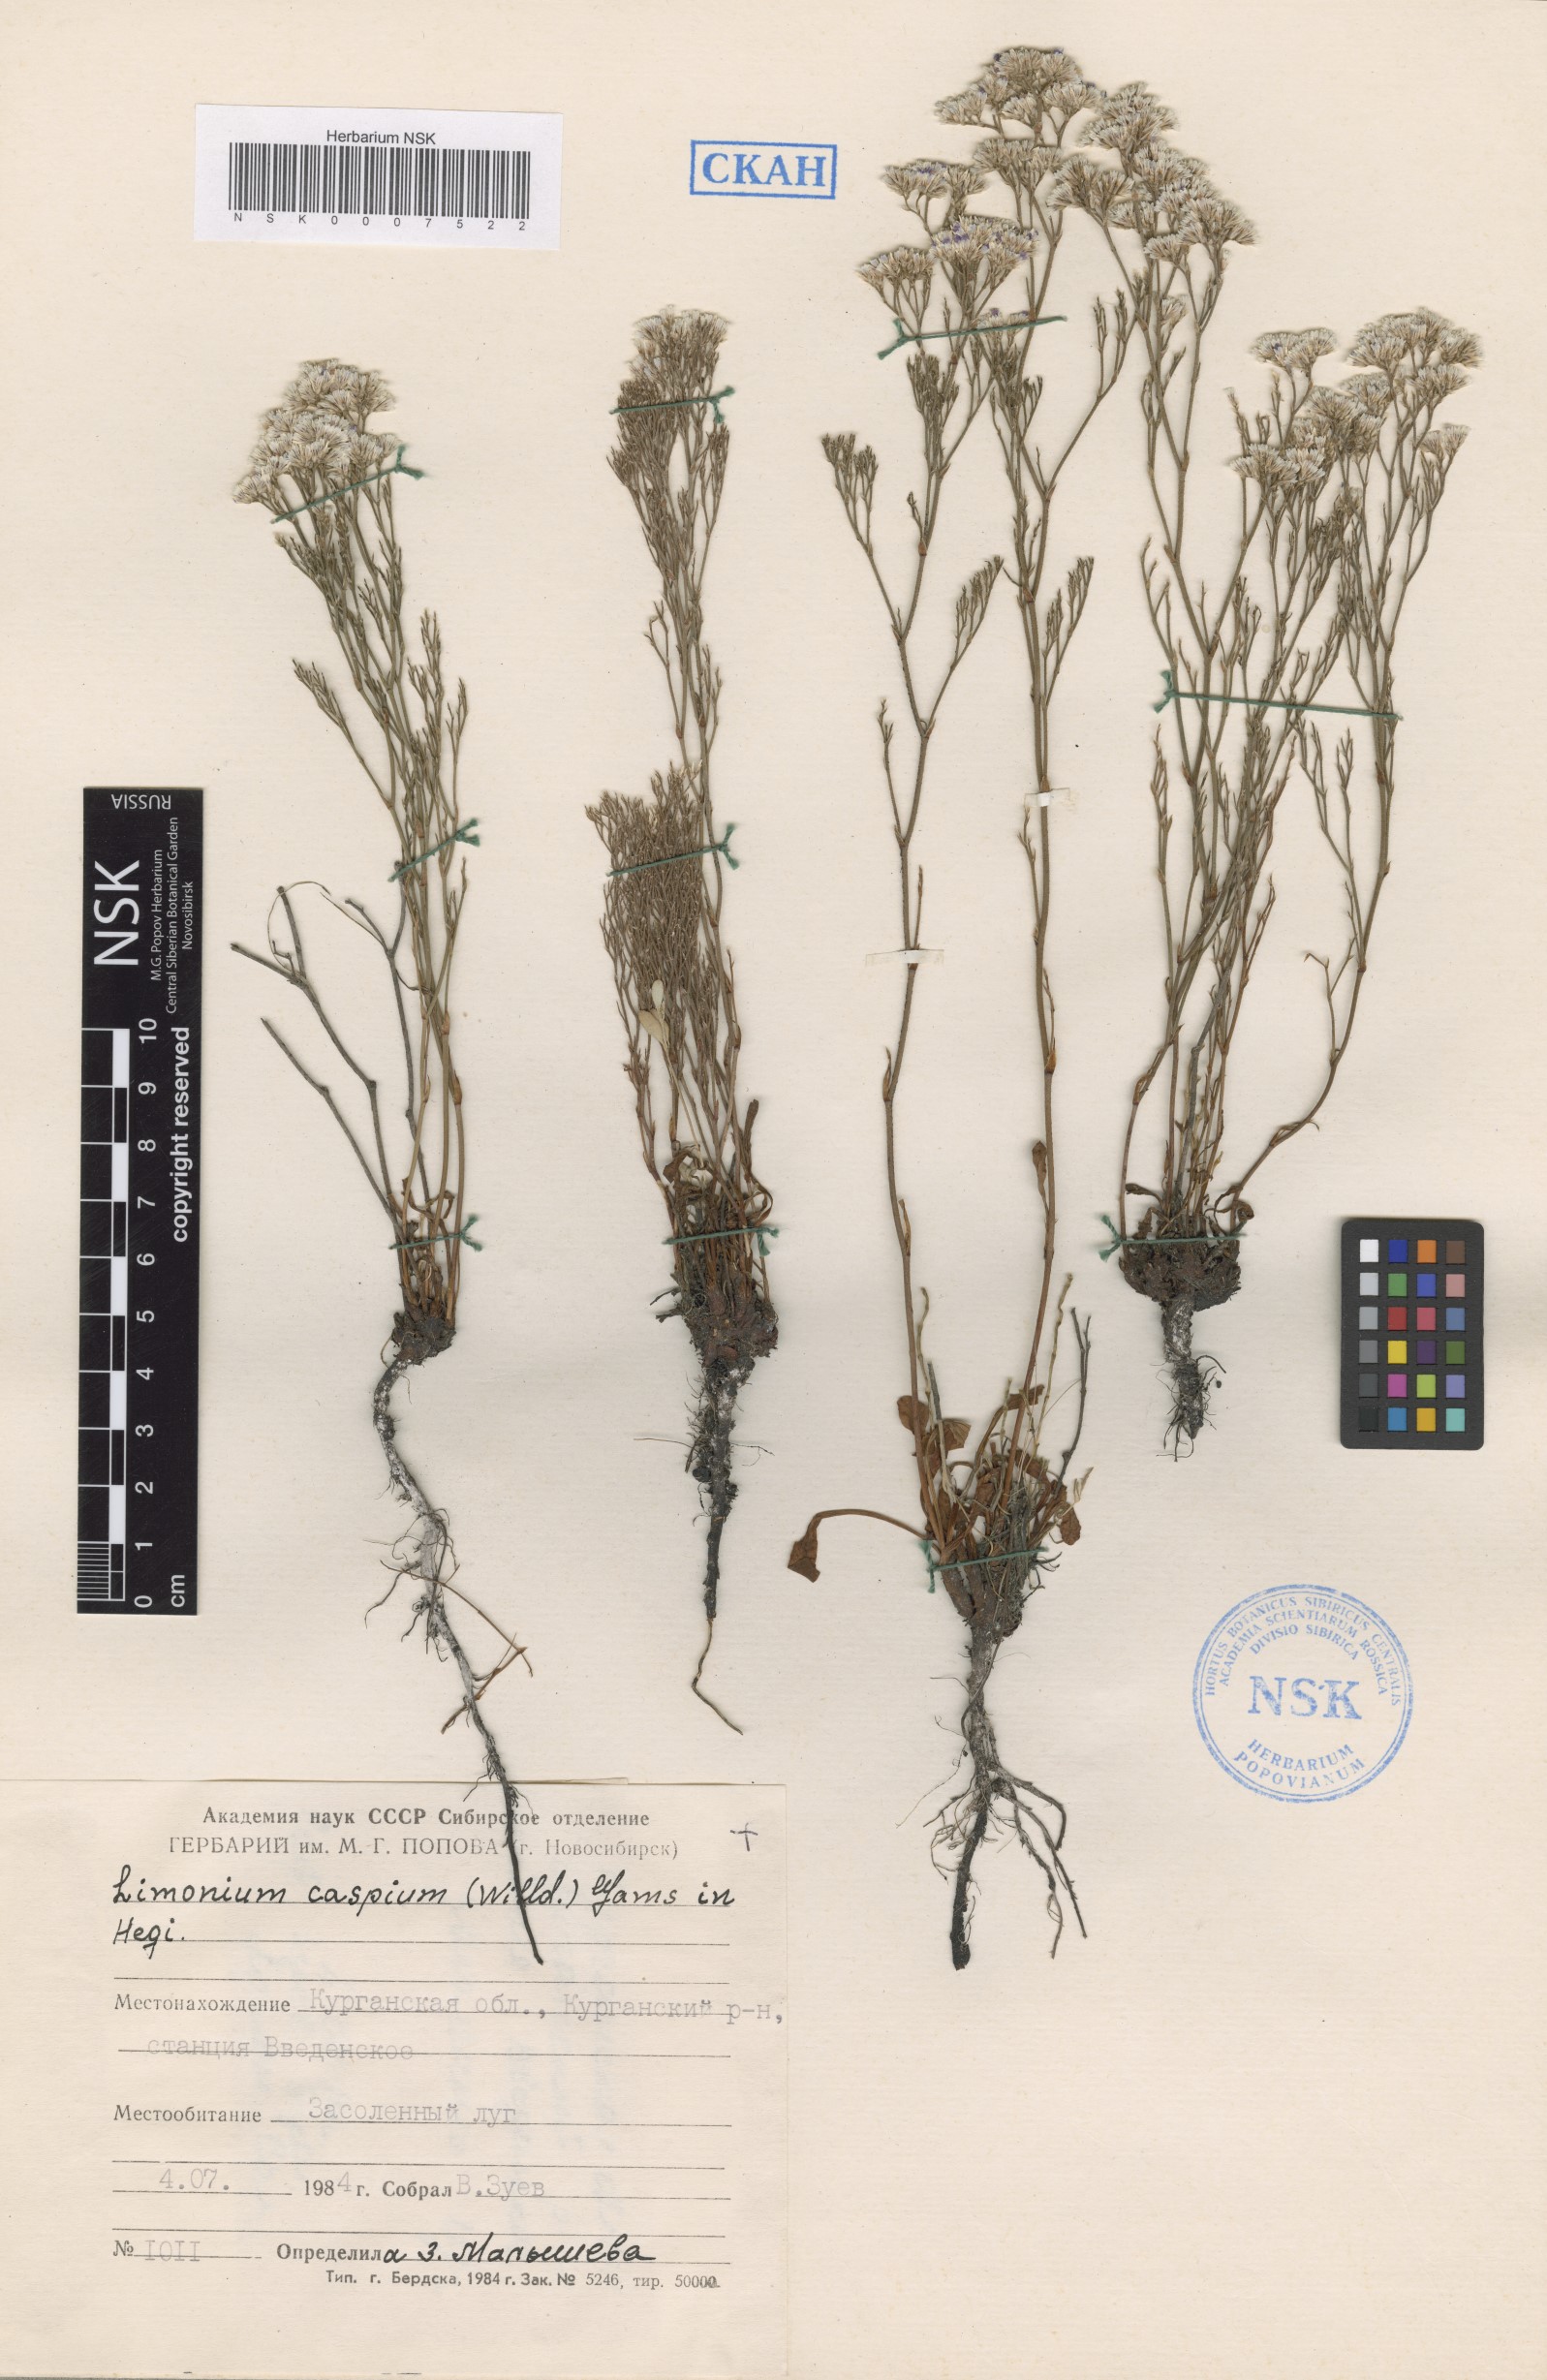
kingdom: Plantae
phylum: Tracheophyta
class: Magnoliopsida
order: Caryophyllales
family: Plumbaginaceae
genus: Limonium
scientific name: Limonium bellidifolium
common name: Matted sea-lavender
